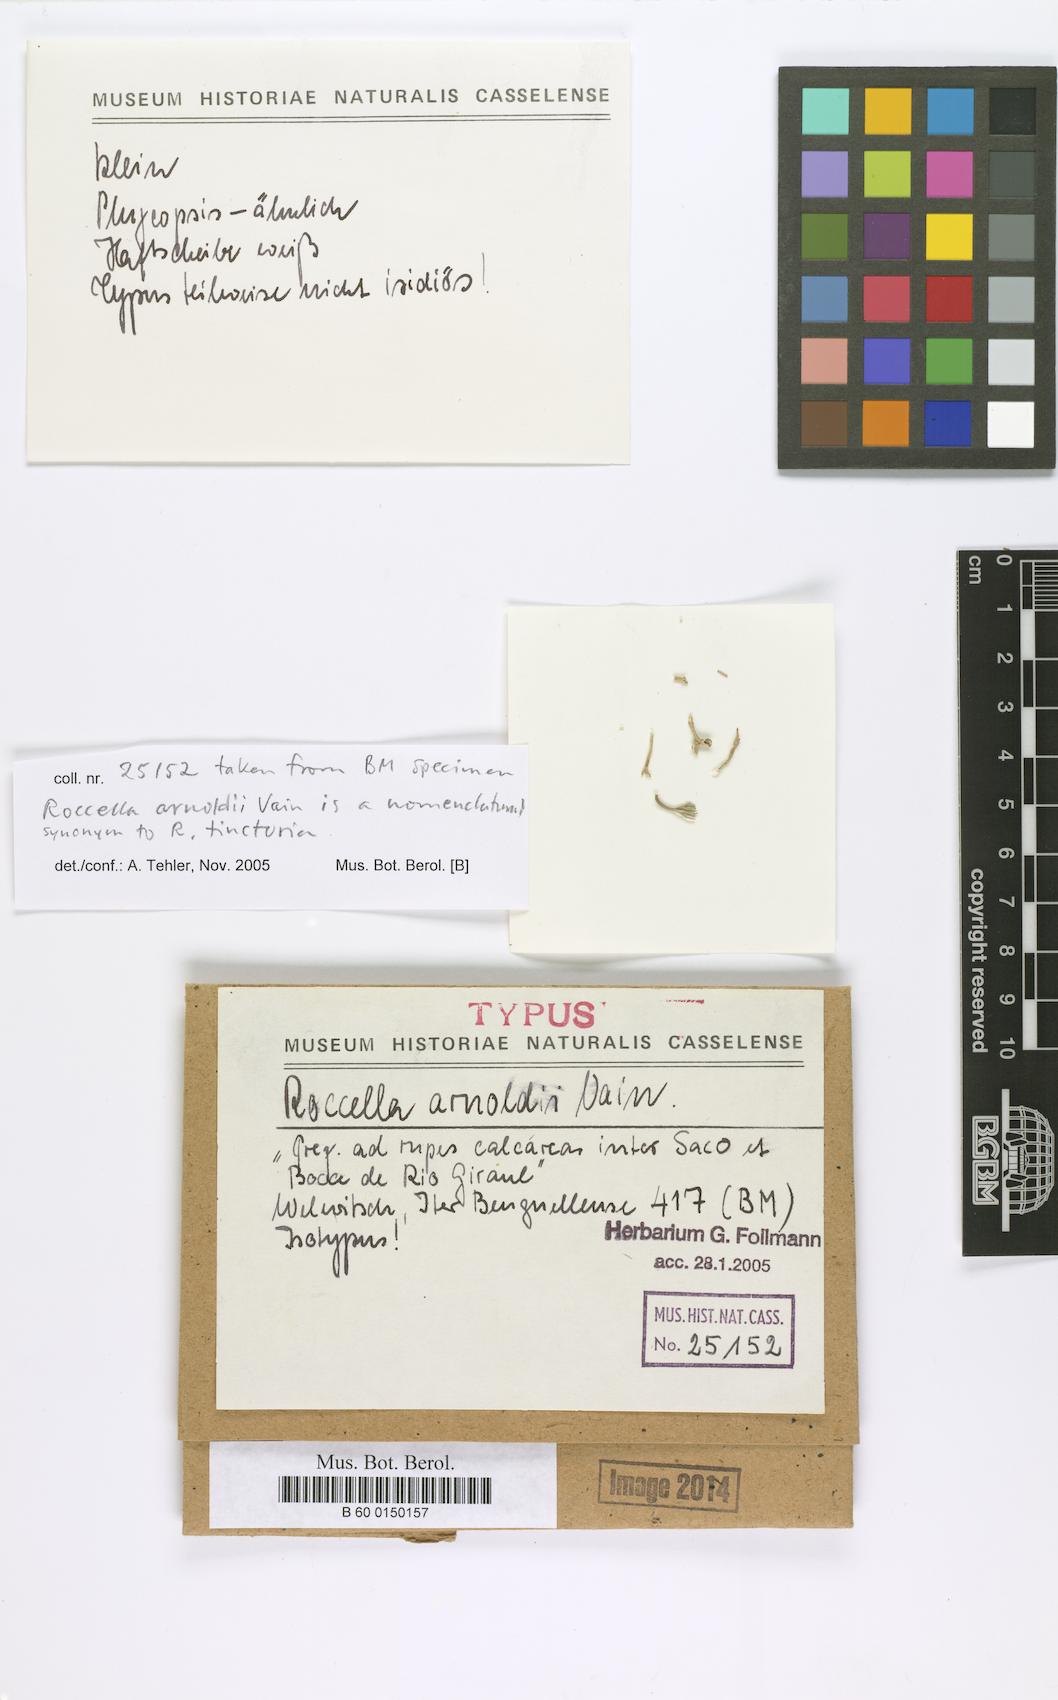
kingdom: Fungi
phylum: Ascomycota
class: Arthoniomycetes
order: Arthoniales
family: Roccellaceae
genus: Roccella
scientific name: Roccella arnoldii
